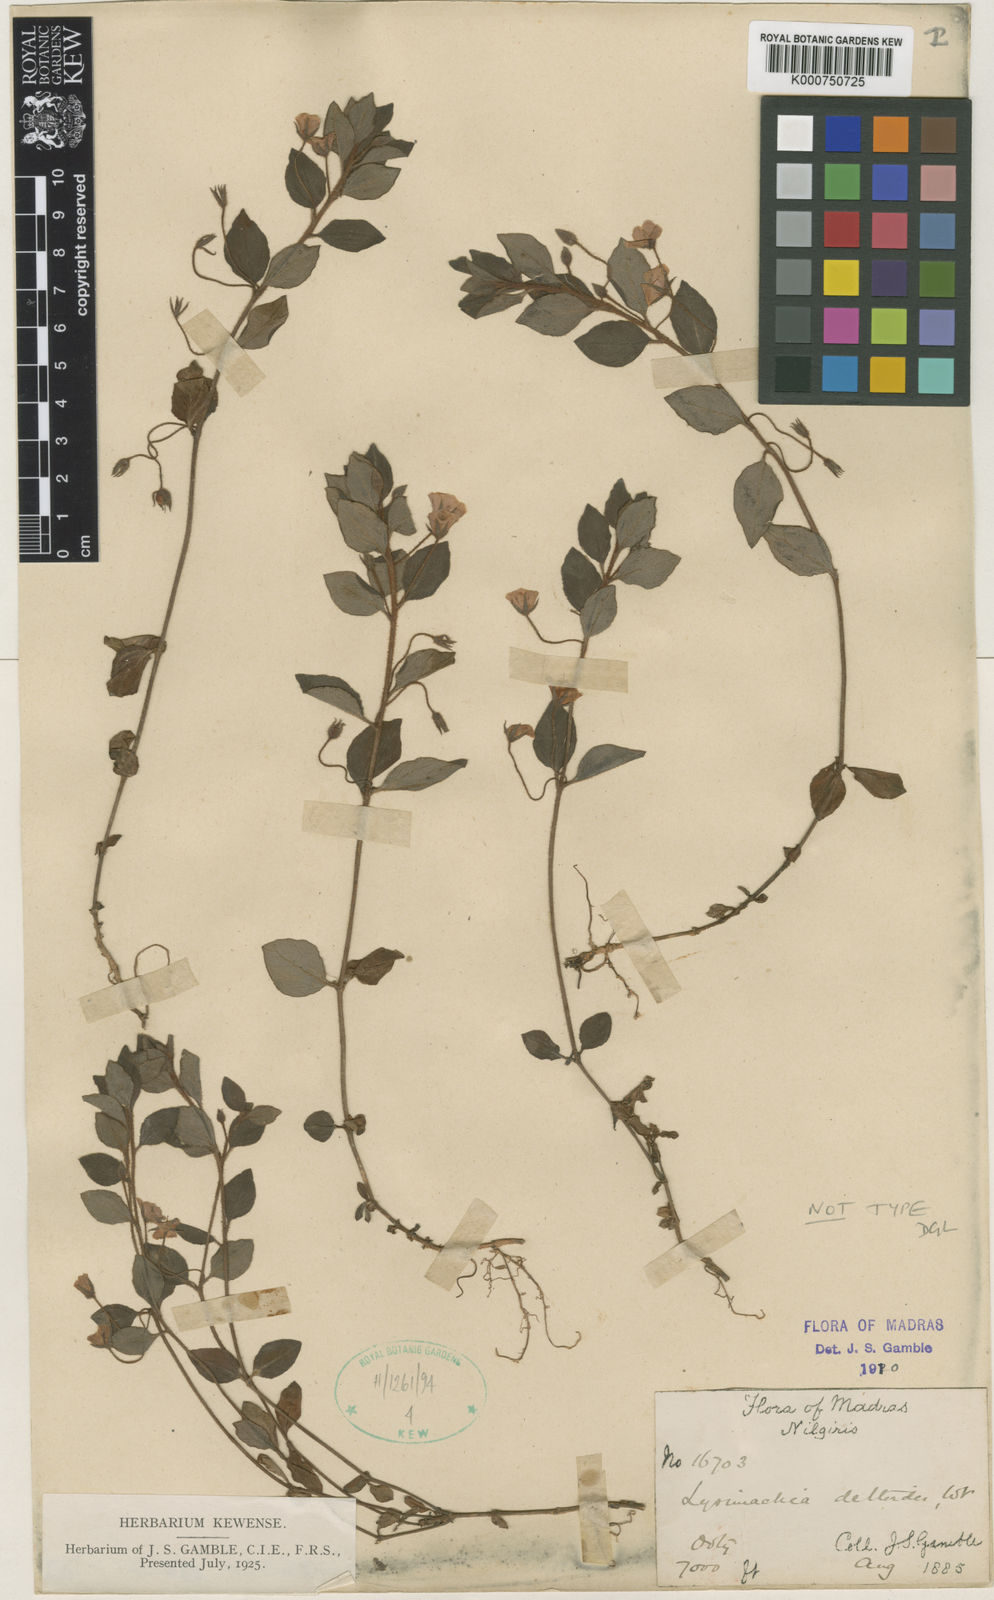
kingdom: Plantae
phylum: Tracheophyta
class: Magnoliopsida
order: Ericales
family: Primulaceae
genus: Lysimachia
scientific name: Lysimachia deltoidea
